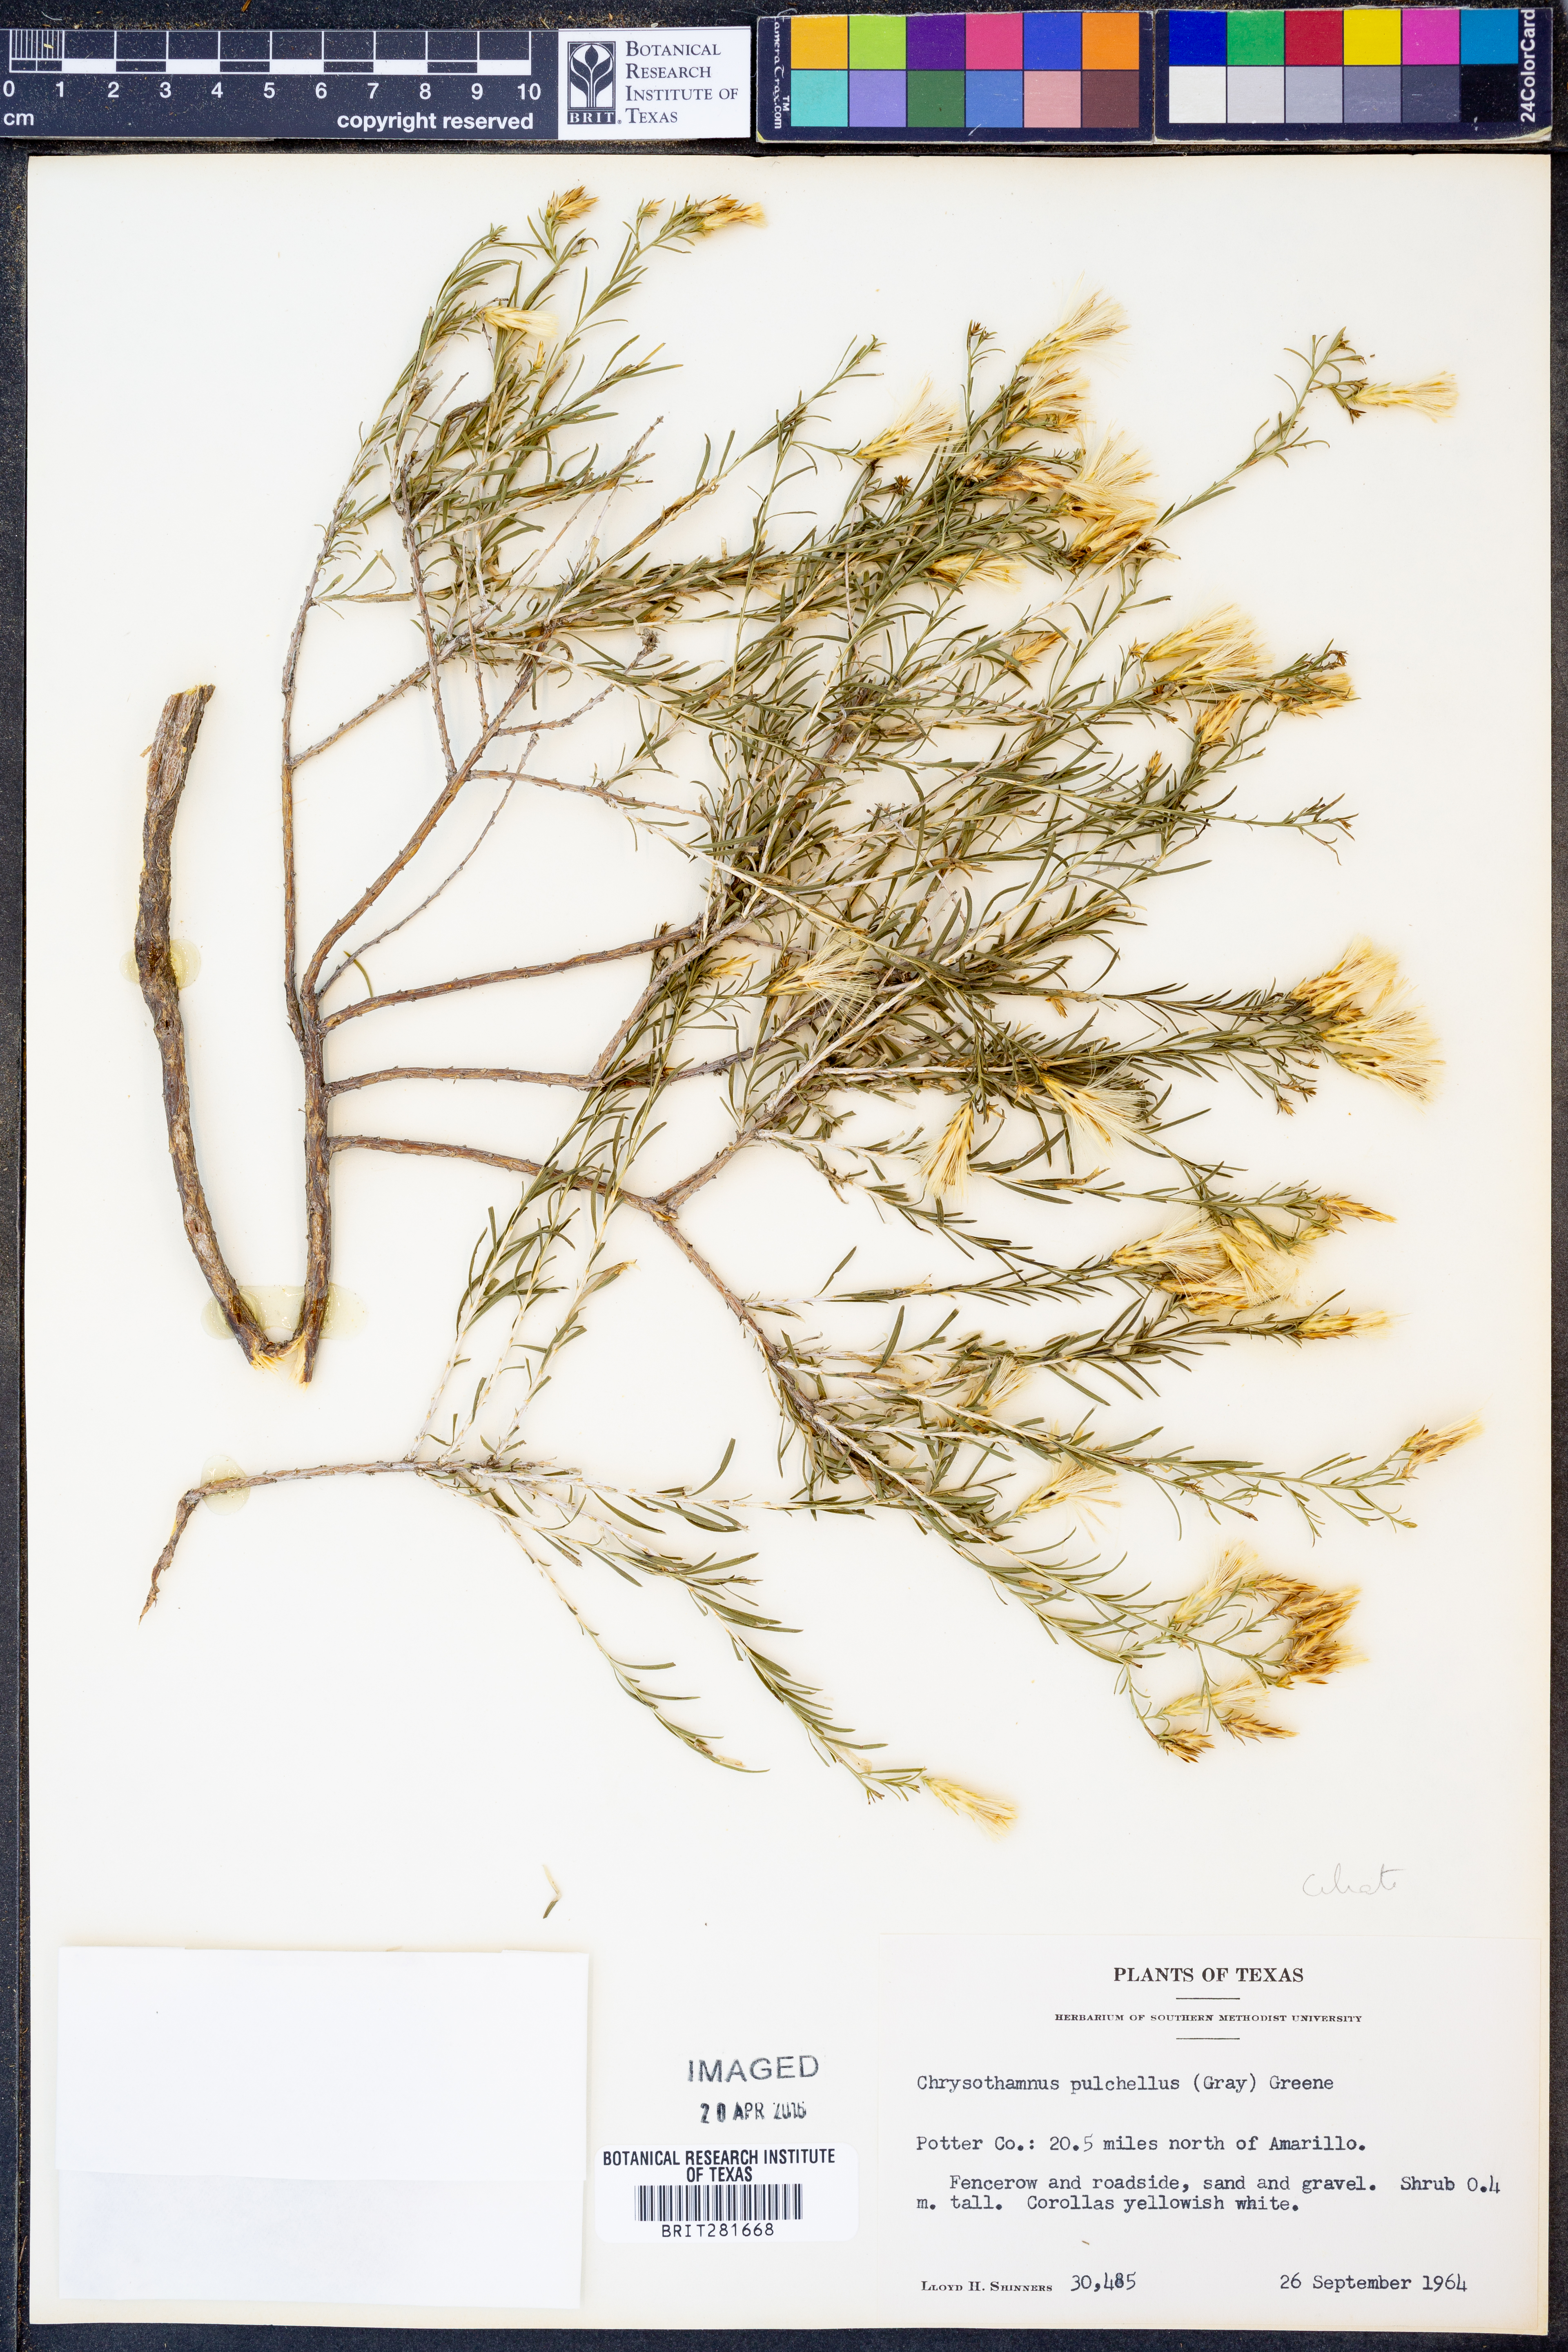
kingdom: Plantae
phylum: Tracheophyta
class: Magnoliopsida
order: Asterales
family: Asteraceae
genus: Lorandersonia
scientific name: Lorandersonia pulchella
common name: Southwestern rabbitbrush
